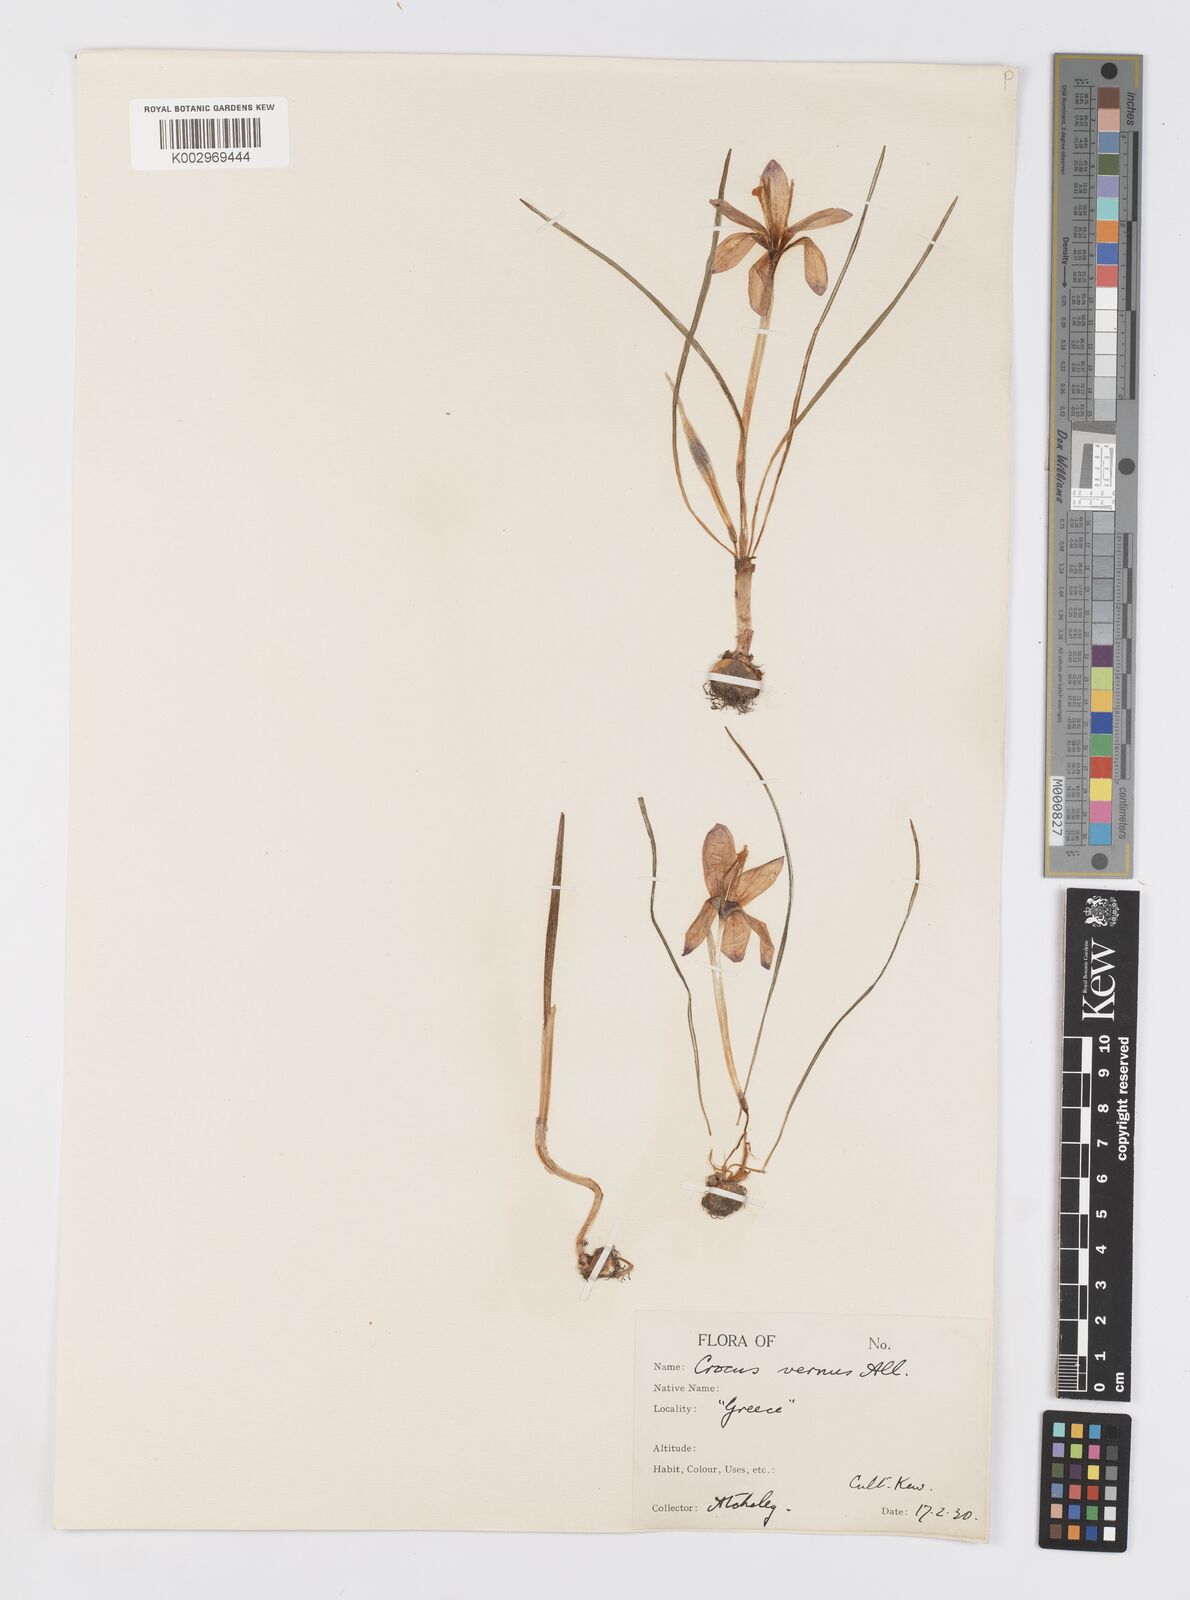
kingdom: Plantae
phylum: Tracheophyta
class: Liliopsida
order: Asparagales
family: Iridaceae
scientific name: Iridaceae
